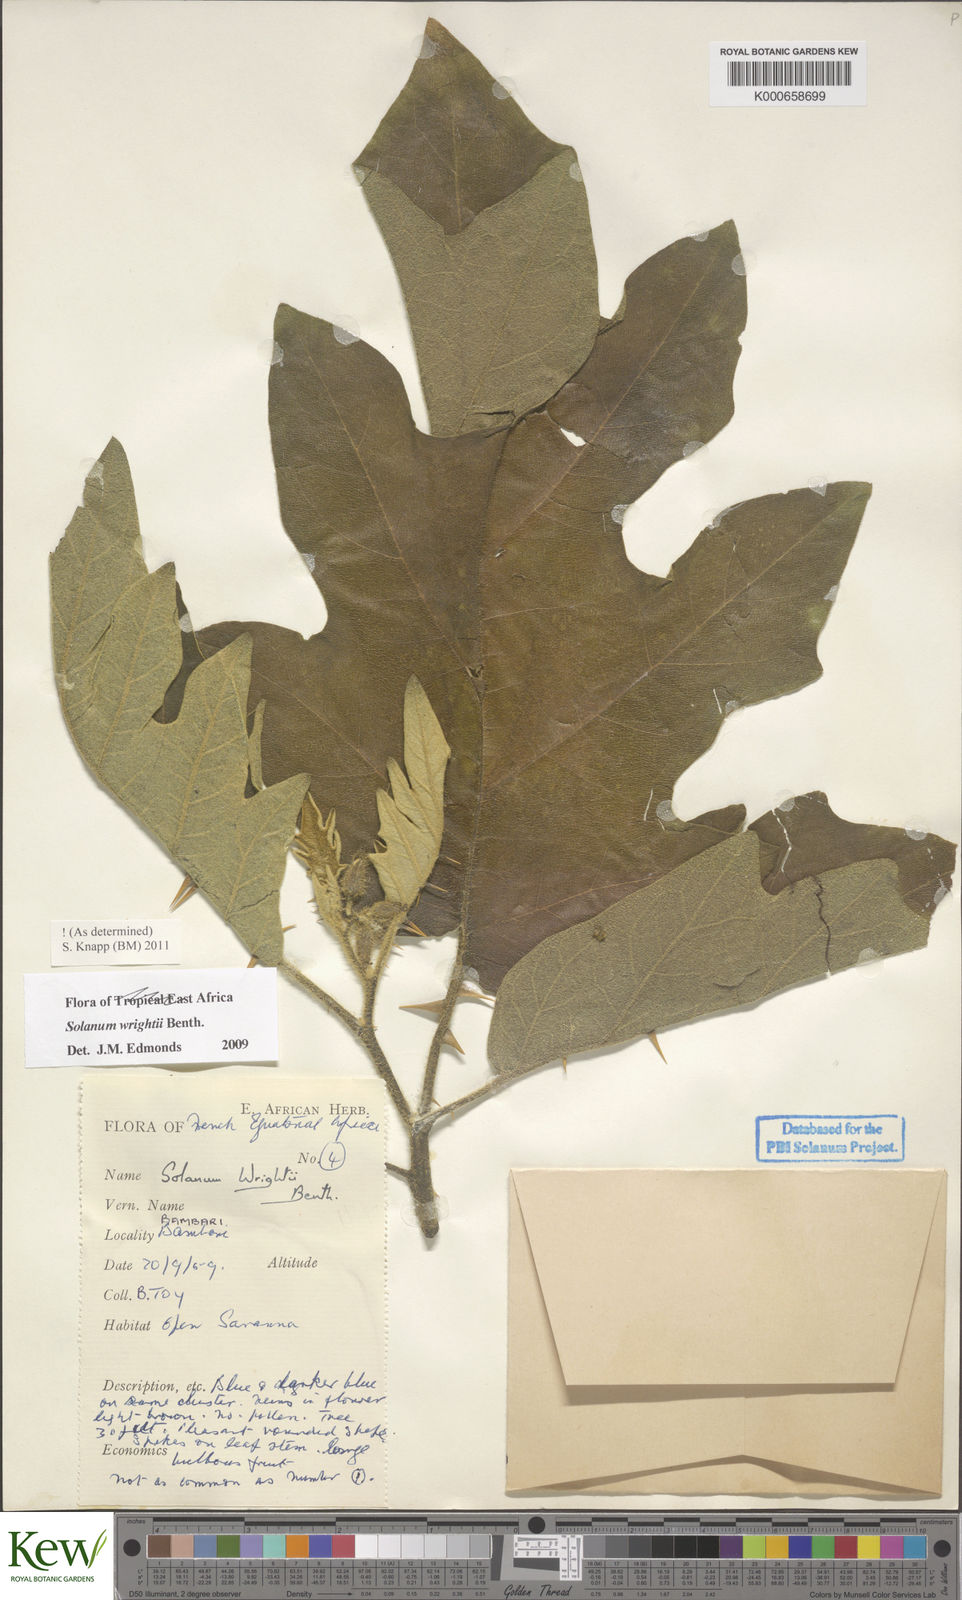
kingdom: Plantae
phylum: Tracheophyta
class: Magnoliopsida
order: Solanales
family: Solanaceae
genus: Solanum
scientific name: Solanum wrightii
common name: Brazilian potato-tree
